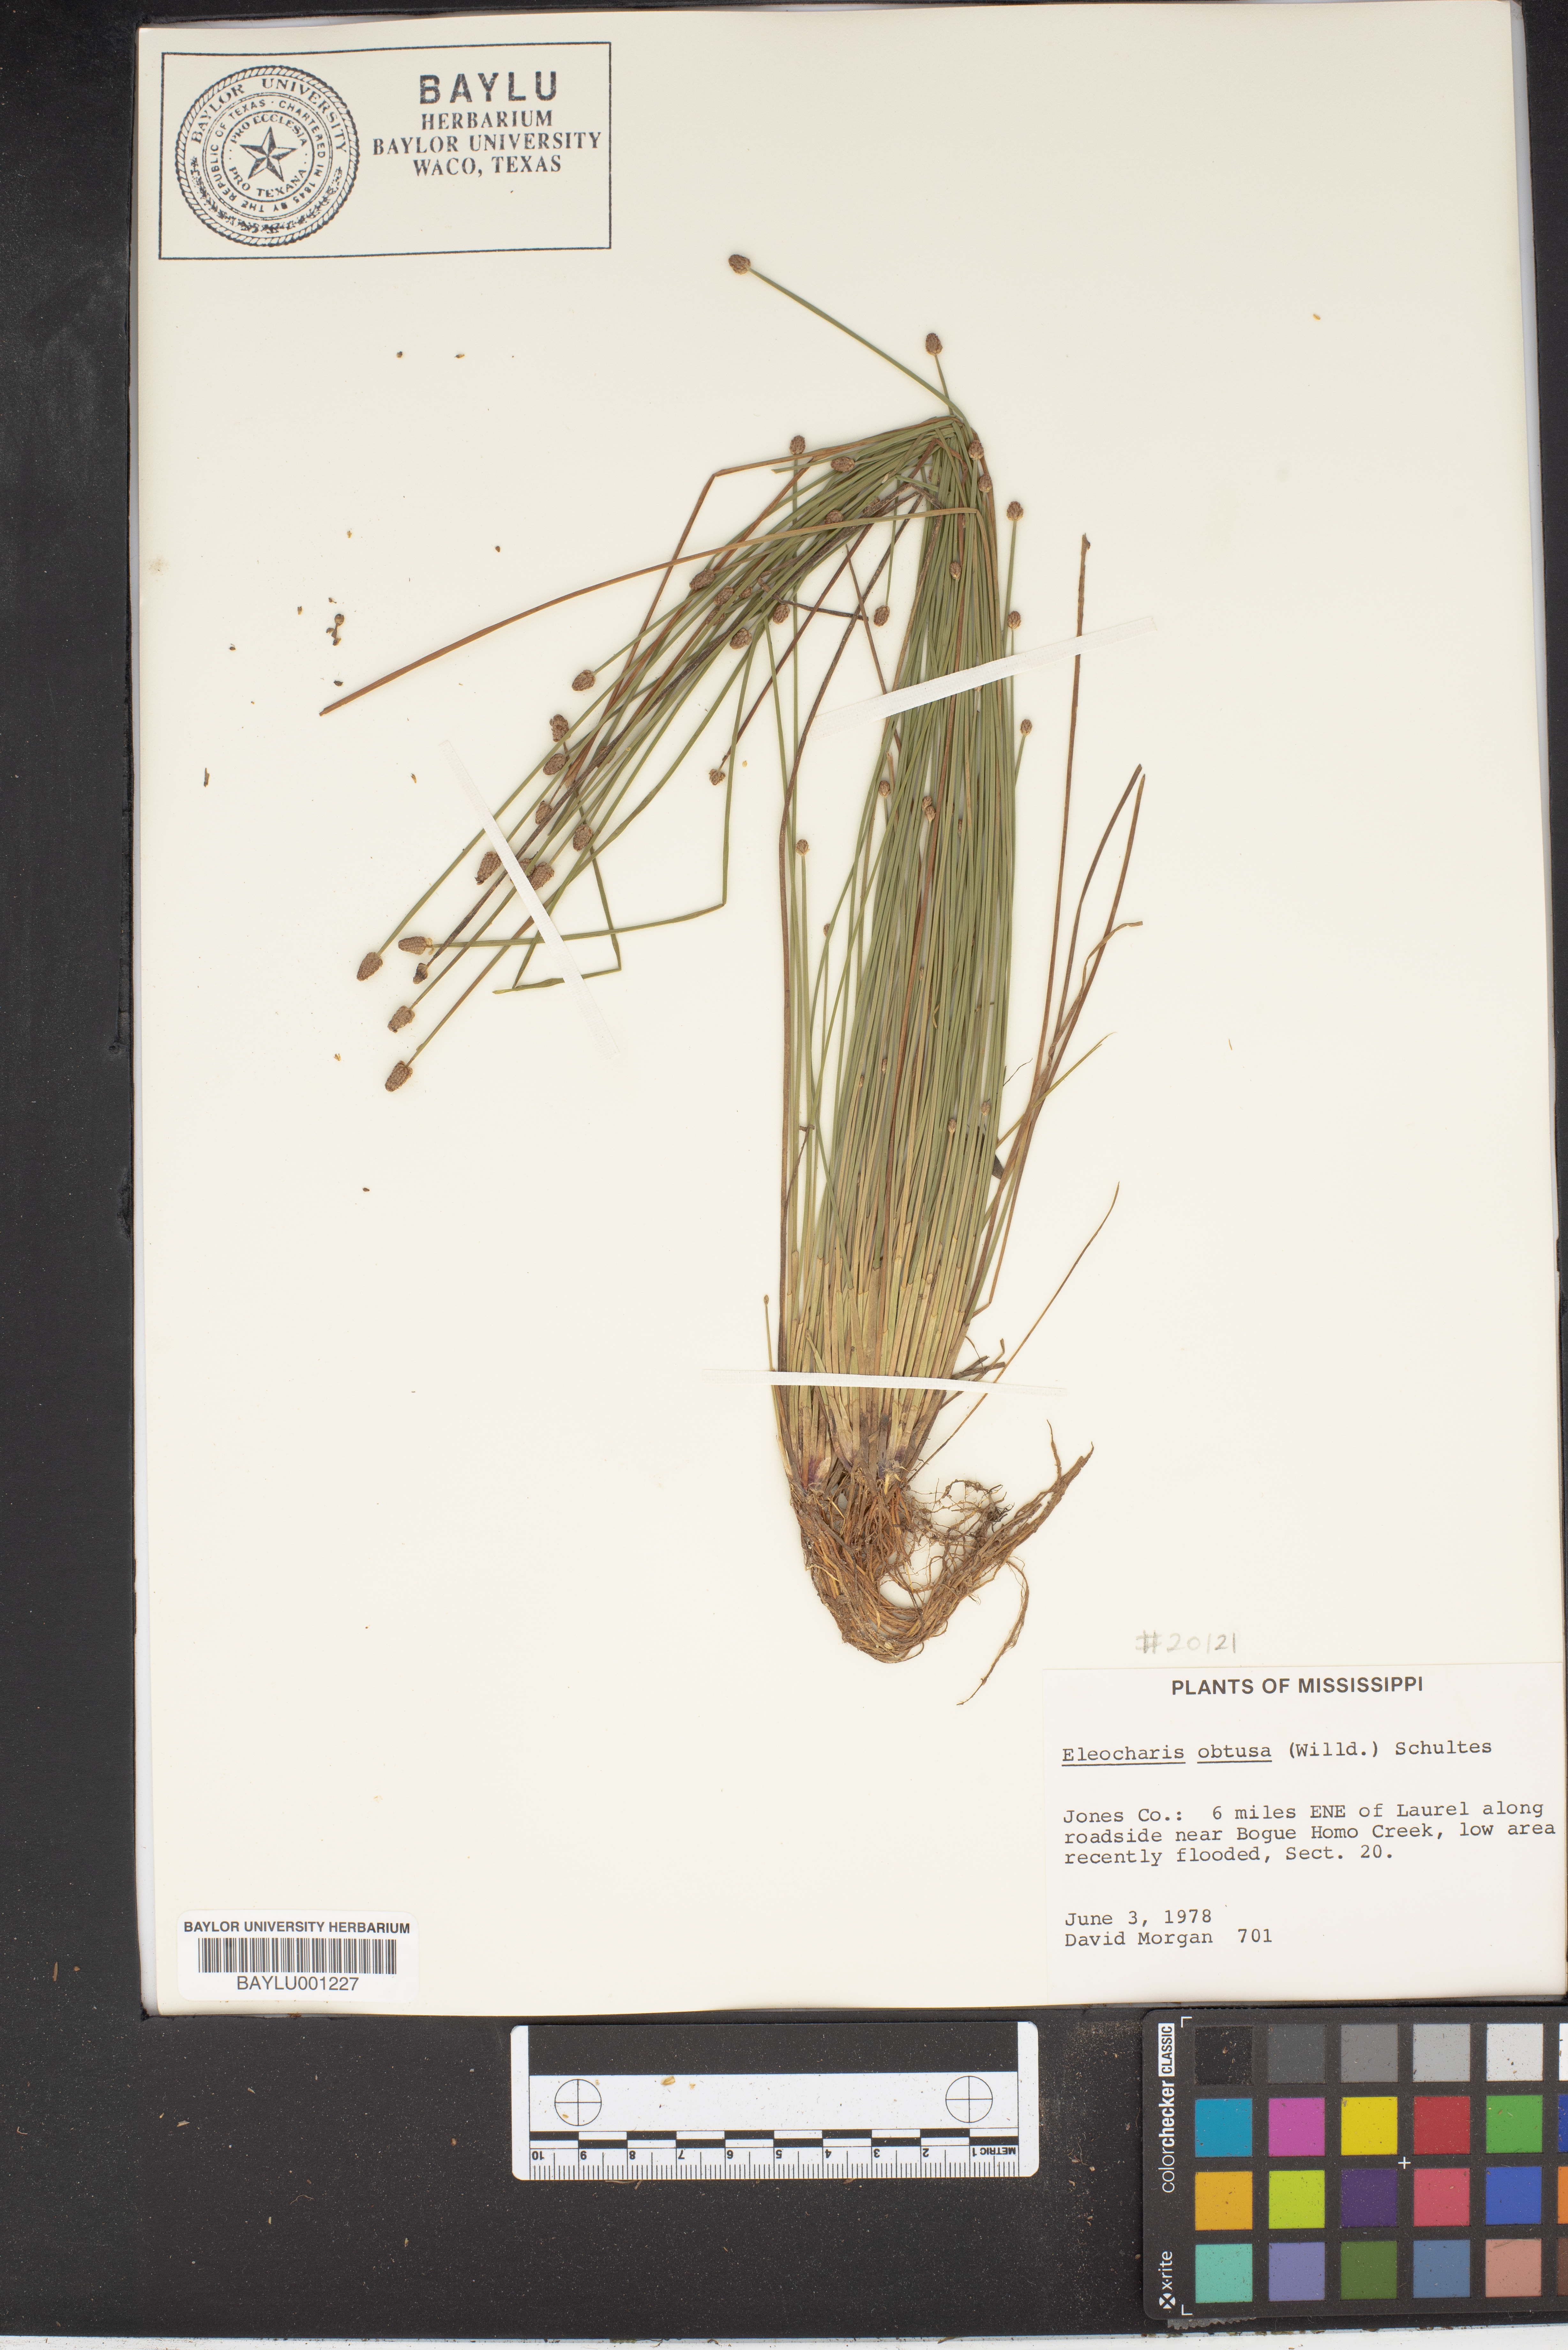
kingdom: Plantae
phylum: Tracheophyta
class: Liliopsida
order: Poales
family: Cyperaceae
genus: Eleocharis
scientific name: Eleocharis obtusa
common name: Blunt spikerush
